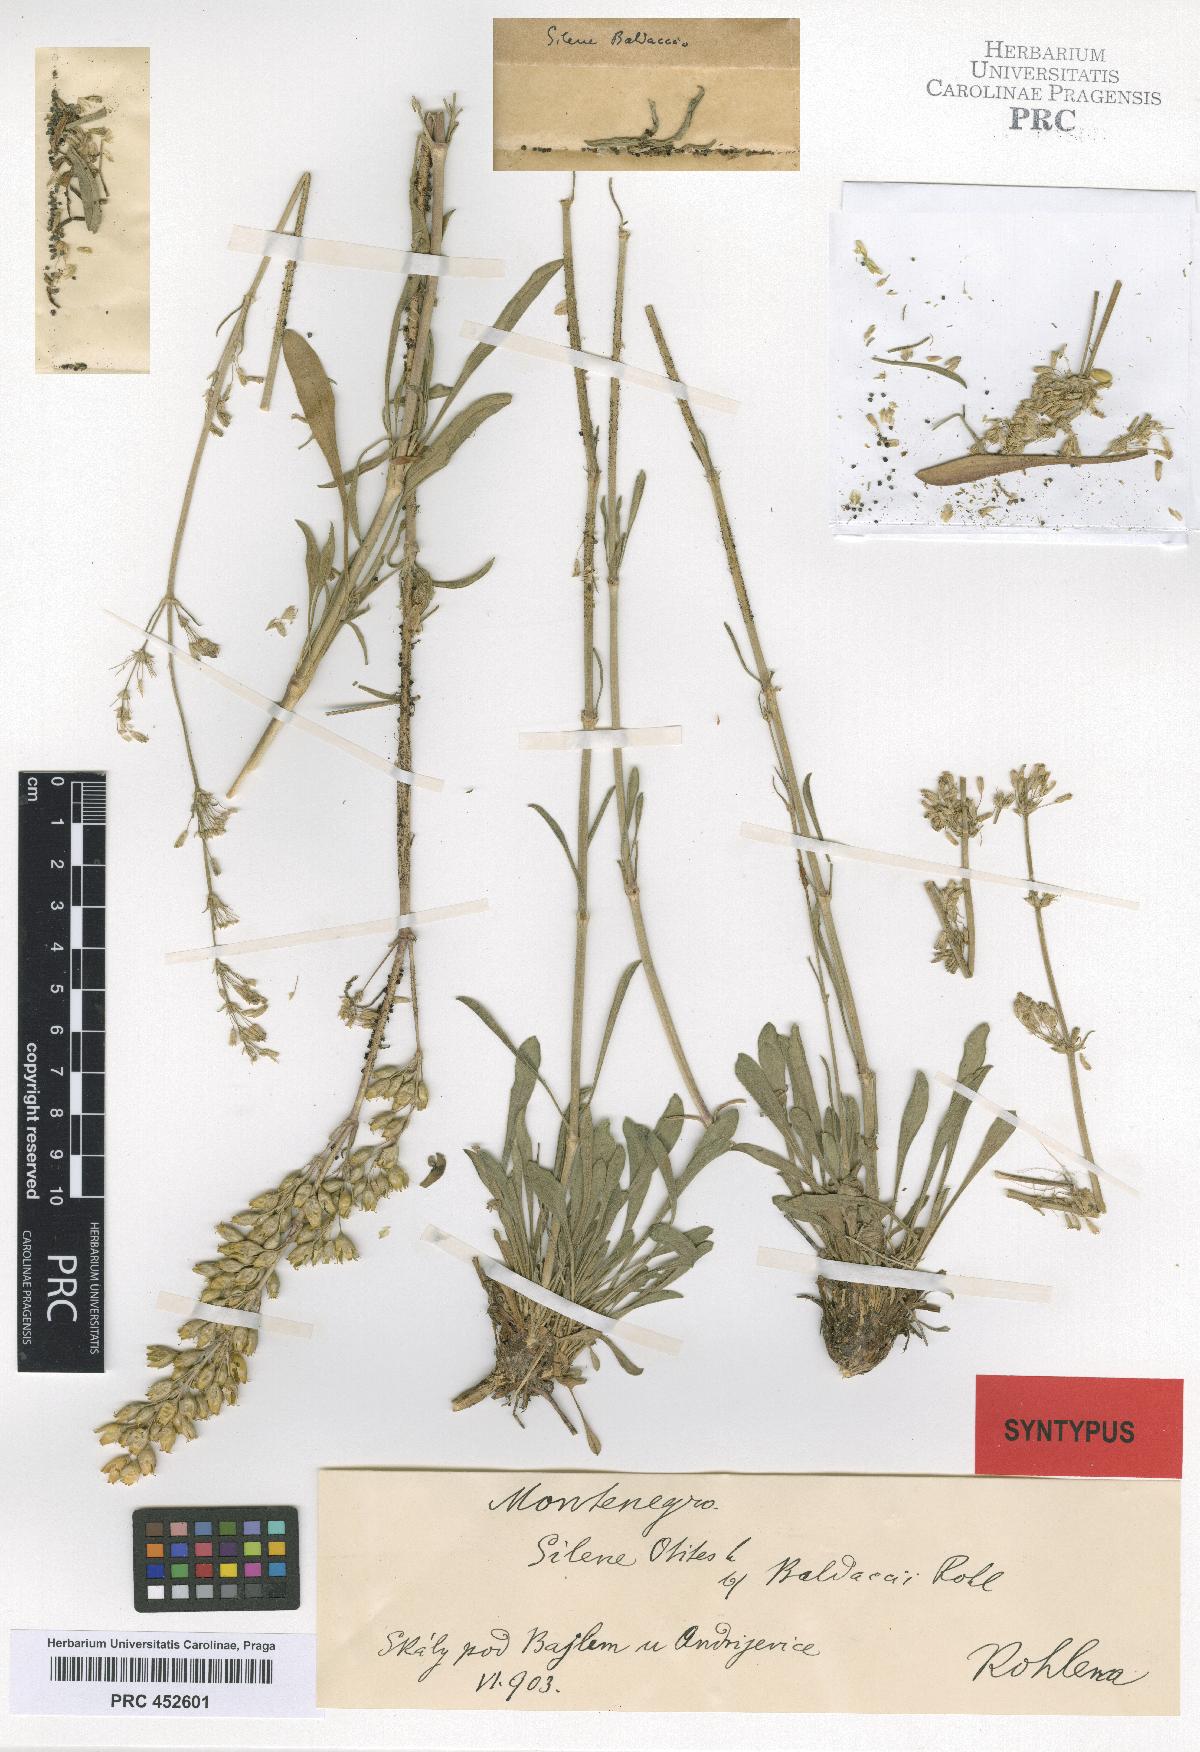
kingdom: Plantae
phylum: Tracheophyta
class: Magnoliopsida
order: Caryophyllales
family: Caryophyllaceae
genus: Silene
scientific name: Silene otites
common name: Spanish catchfly
